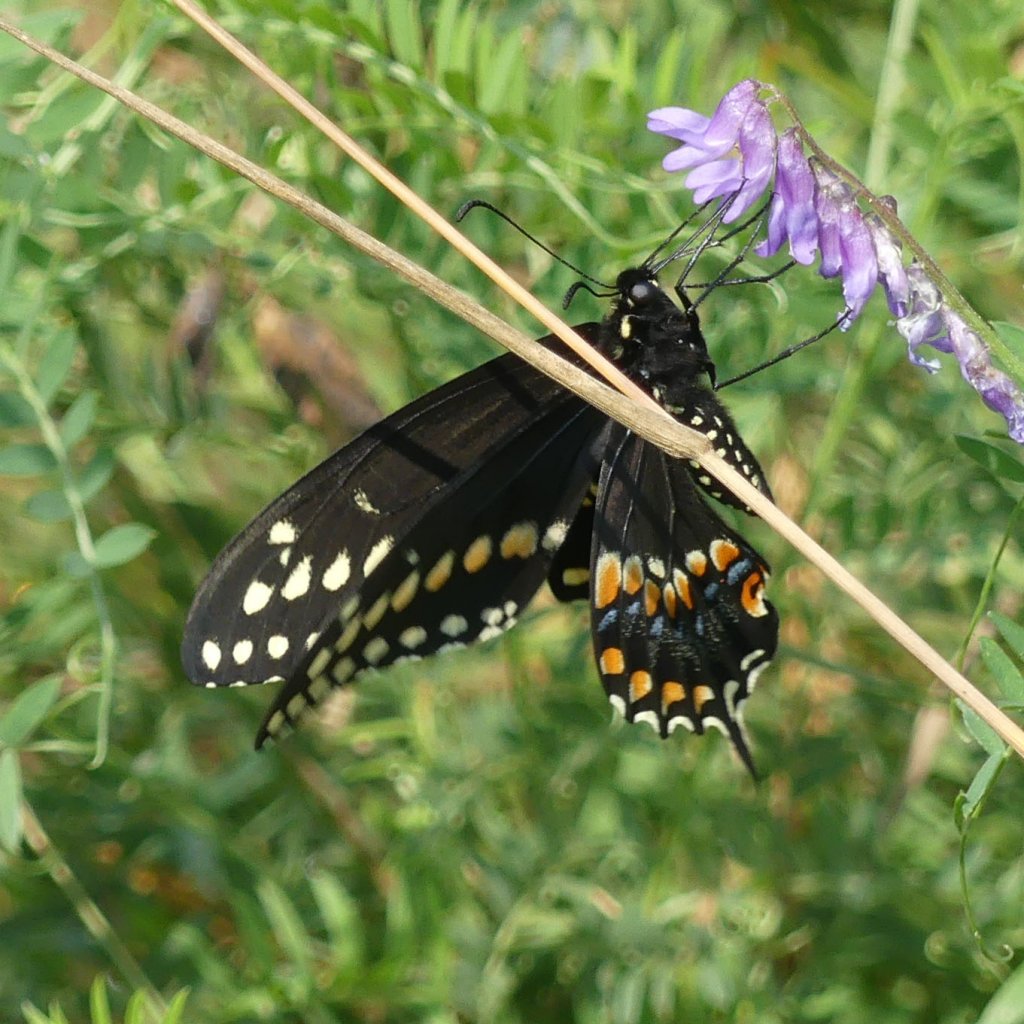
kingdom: Animalia
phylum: Arthropoda
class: Insecta
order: Lepidoptera
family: Papilionidae
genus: Papilio
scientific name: Papilio polyxenes
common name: Black Swallowtail
